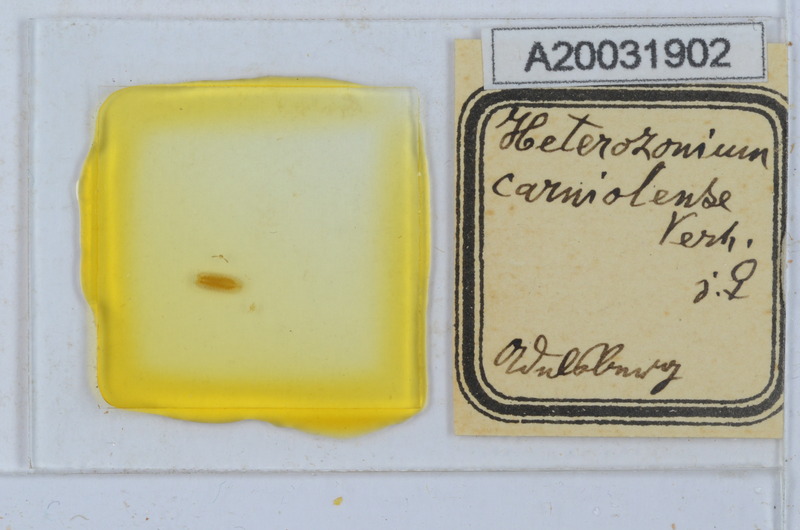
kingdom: Animalia
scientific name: Animalia
